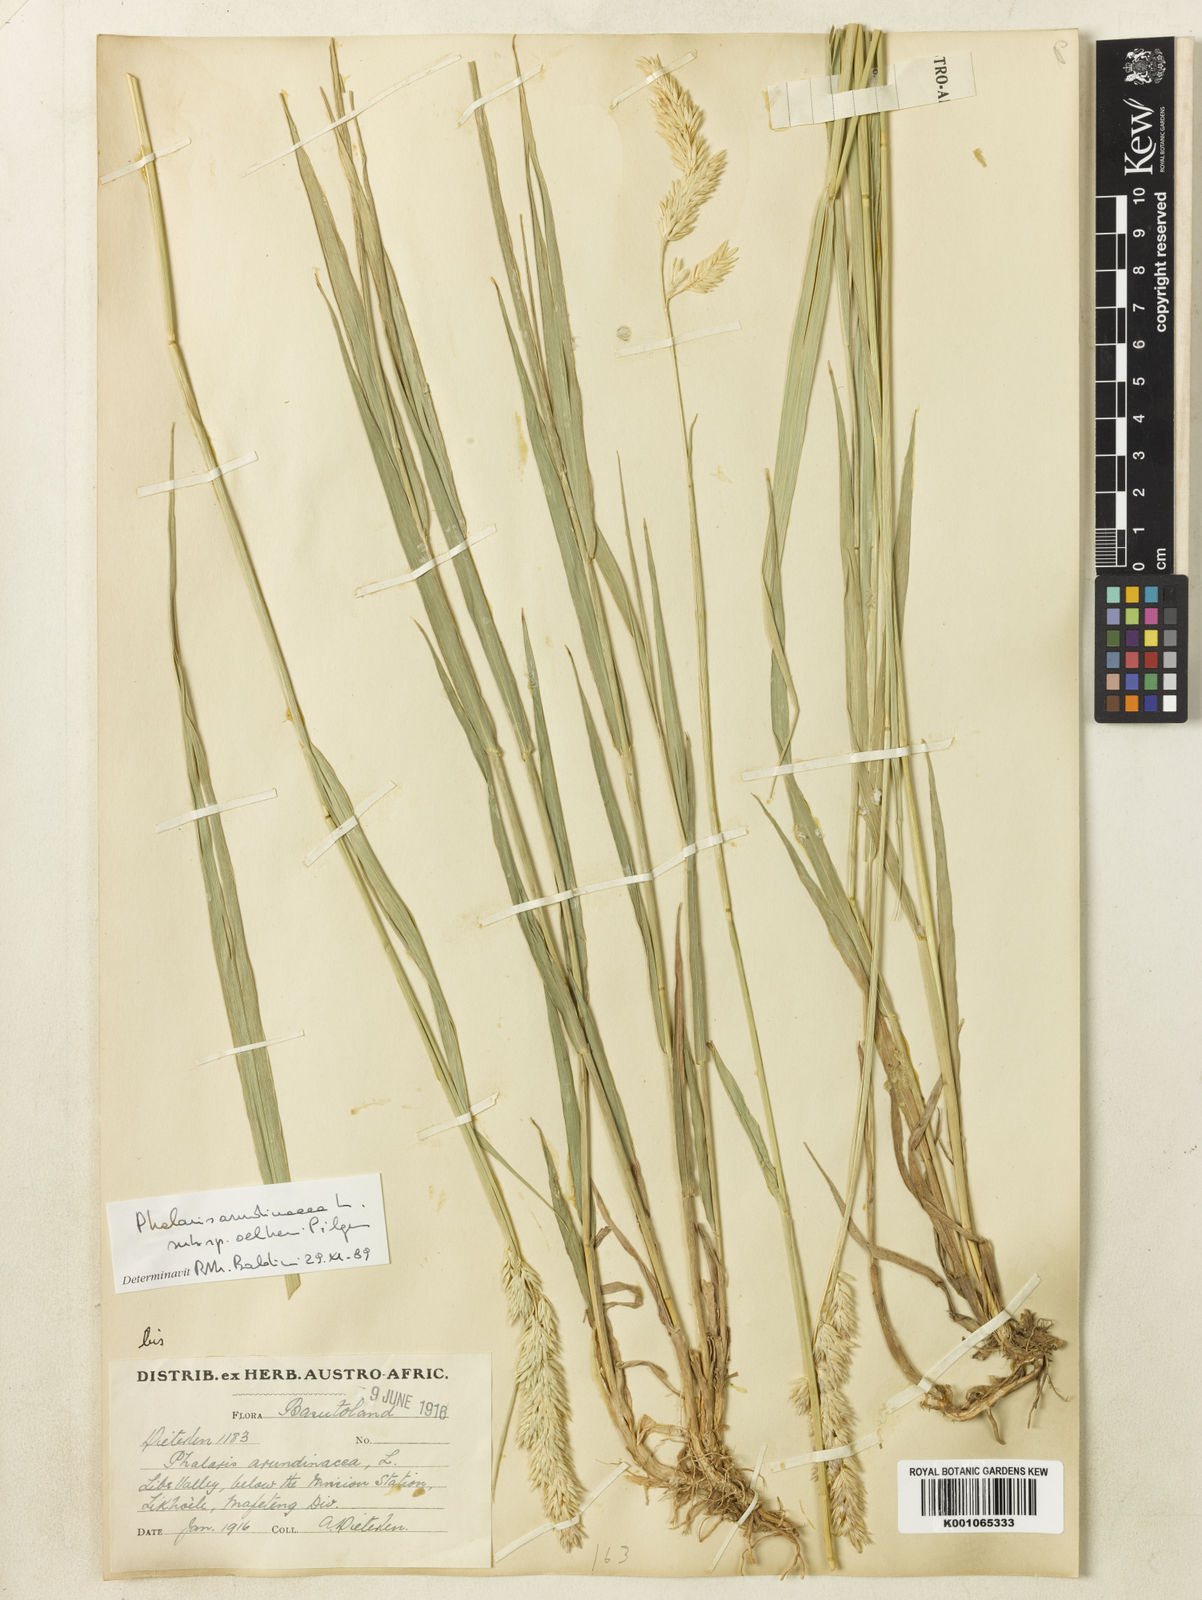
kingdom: Plantae
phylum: Tracheophyta
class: Liliopsida
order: Poales
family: Poaceae
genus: Phalaris
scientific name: Phalaris arundinacea
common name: Reed canary-grass
